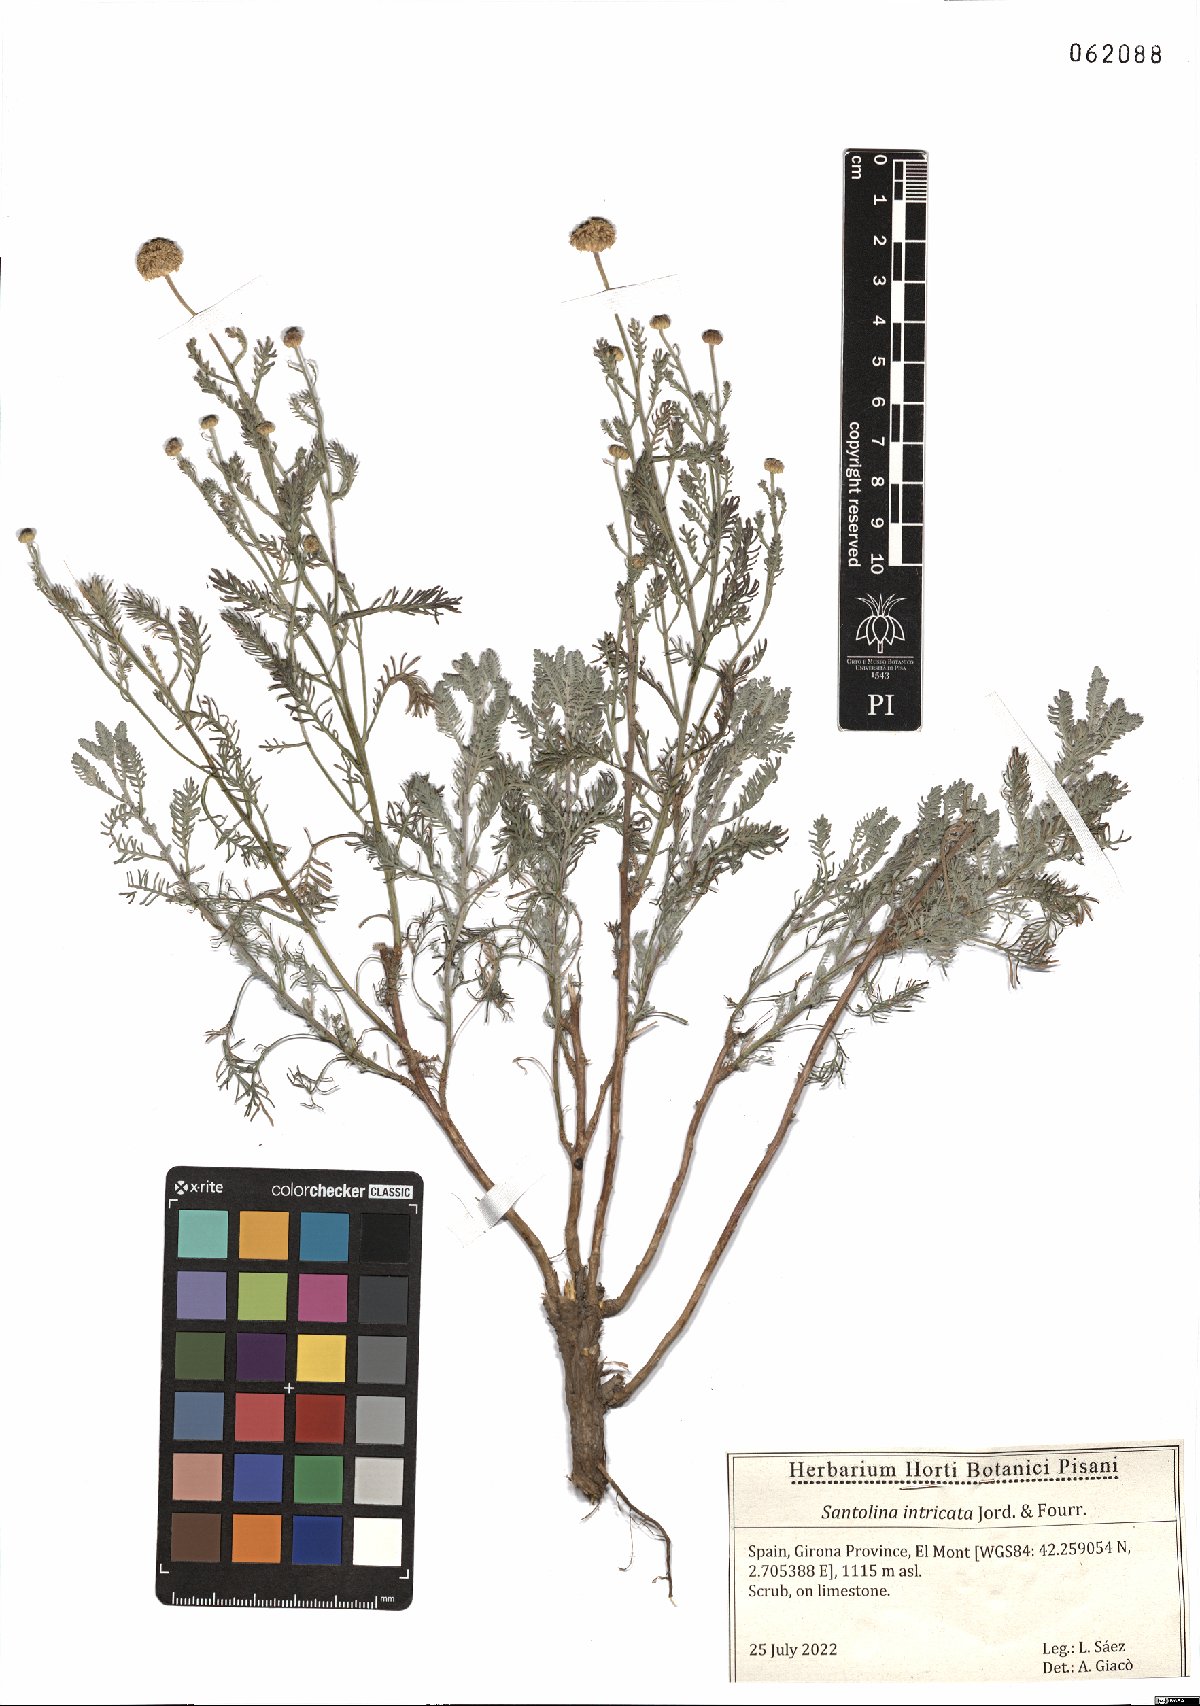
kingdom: Plantae
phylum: Tracheophyta
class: Magnoliopsida
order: Asterales
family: Asteraceae
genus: Santolina
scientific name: Santolina benthamiana
